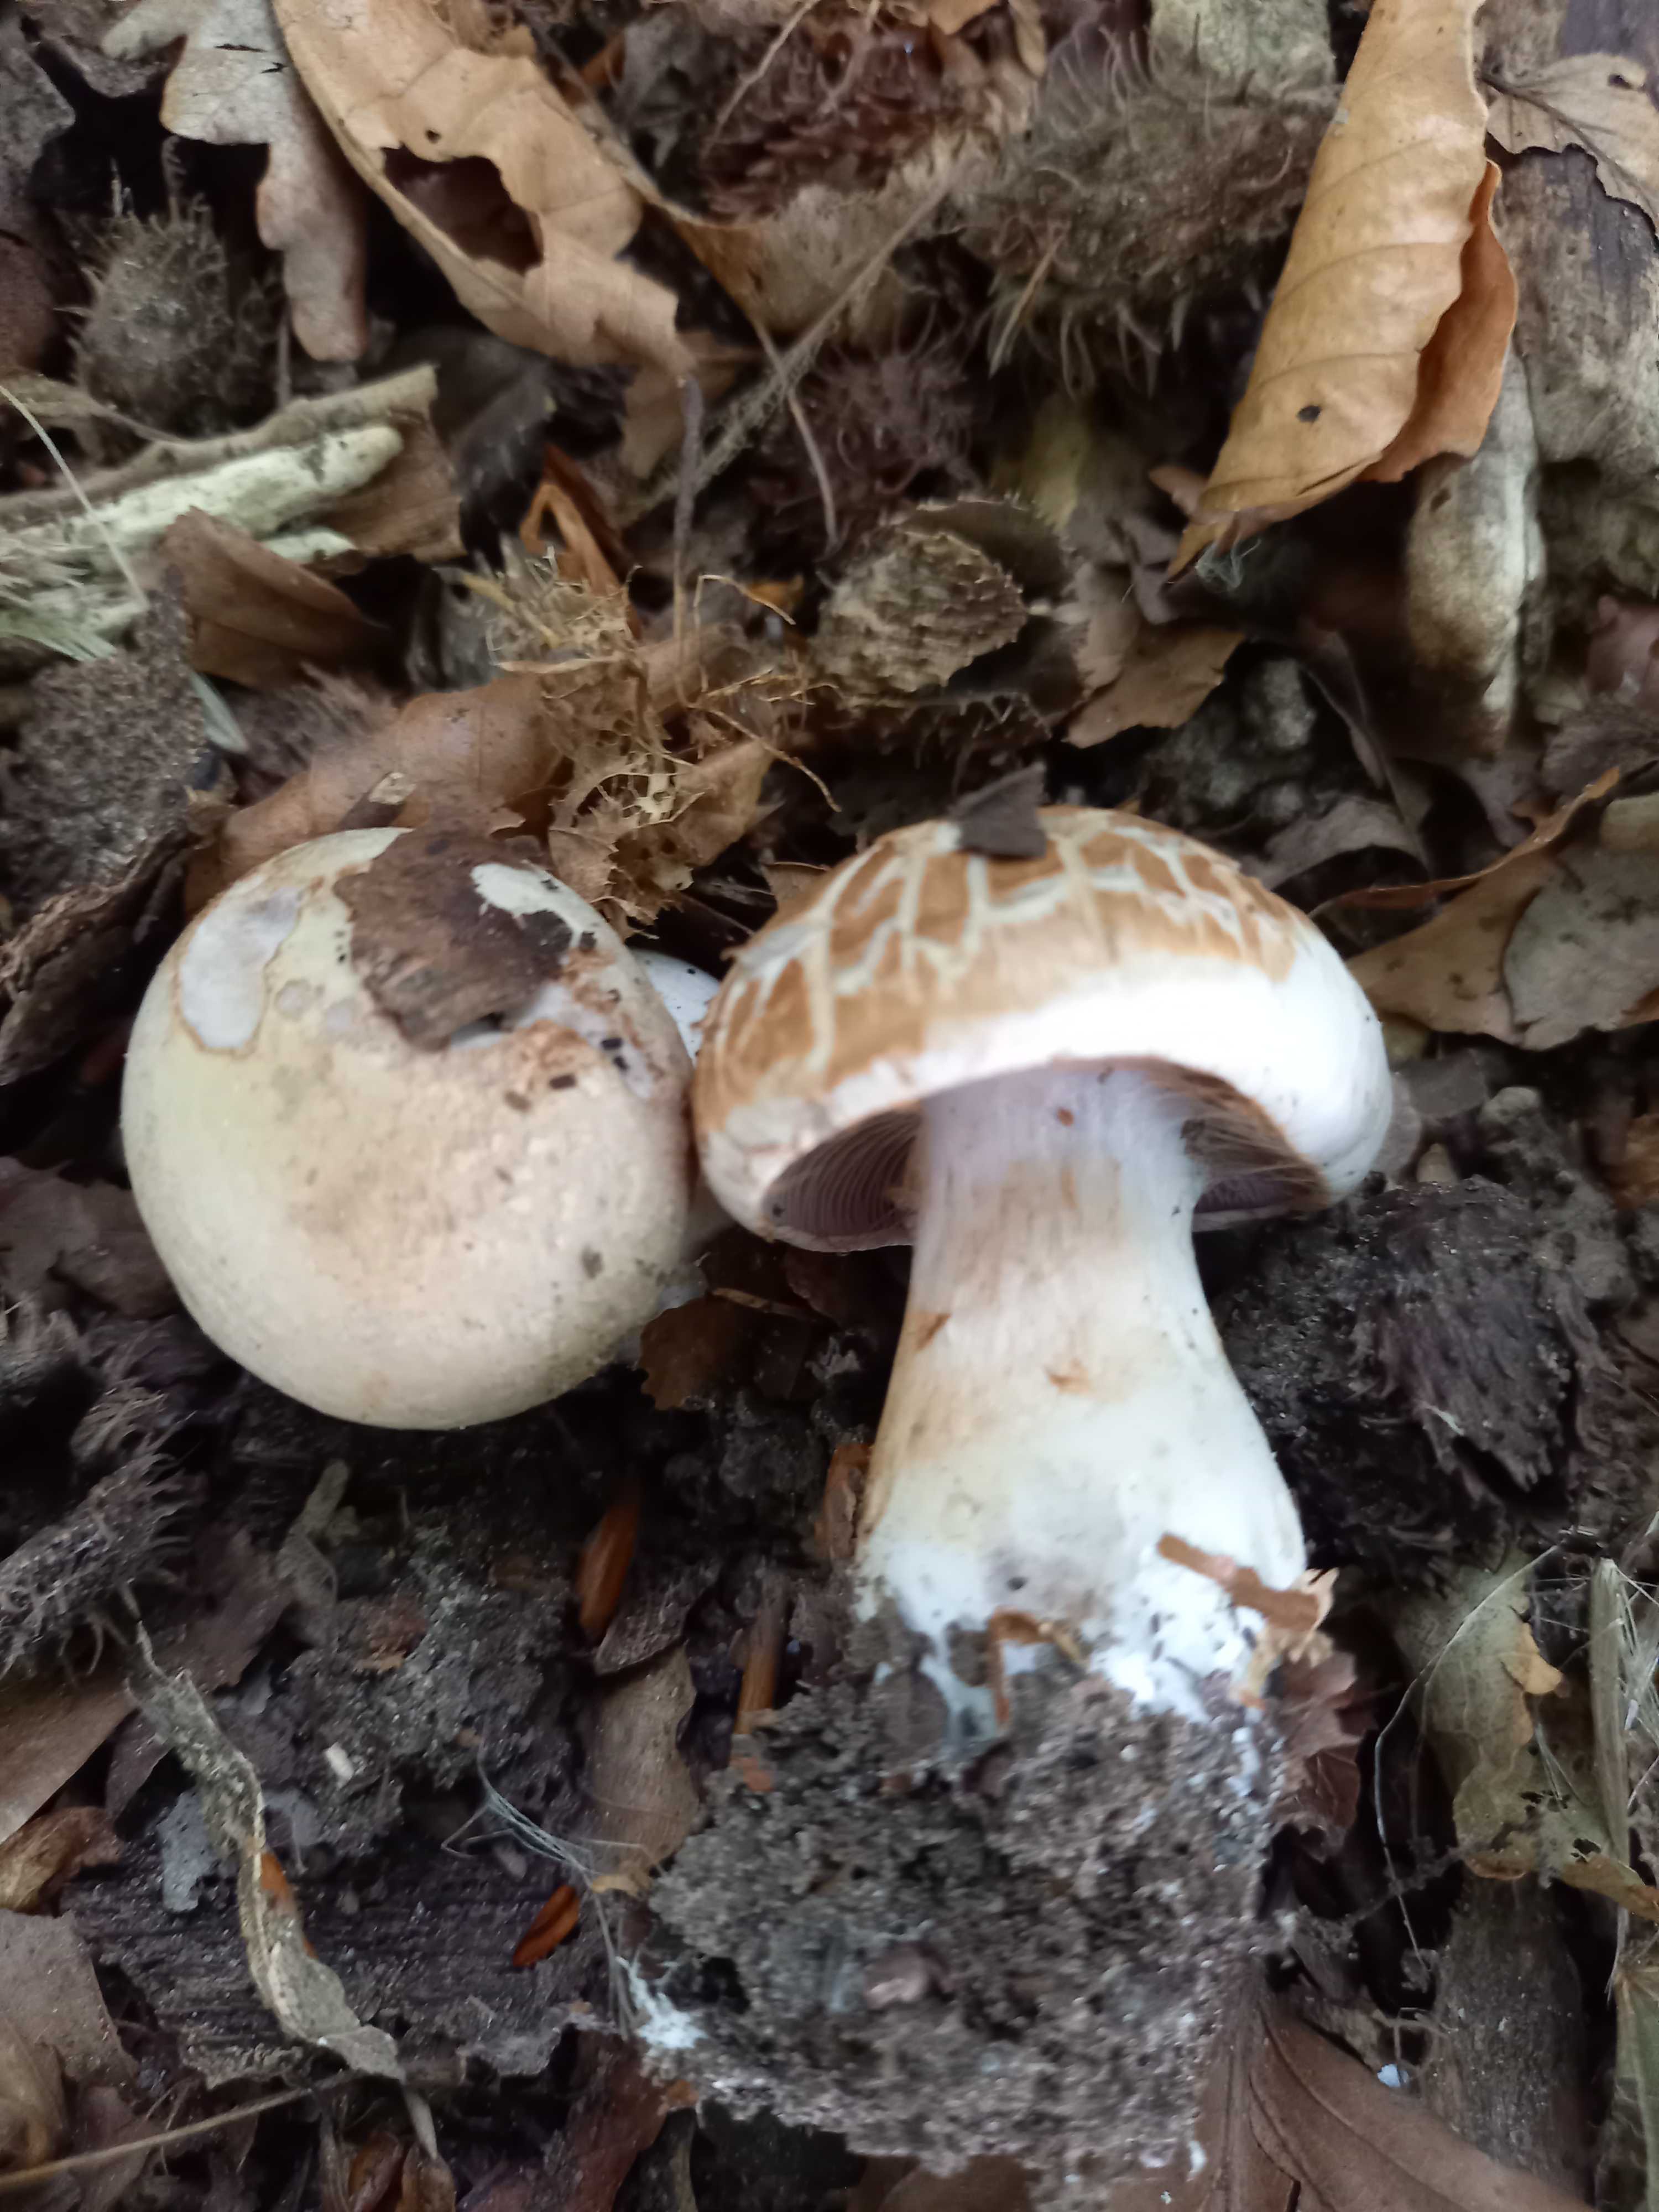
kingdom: Fungi
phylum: Basidiomycota
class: Agaricomycetes
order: Agaricales
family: Cortinariaceae
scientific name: Cortinariaceae
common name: slørhatfamilien
